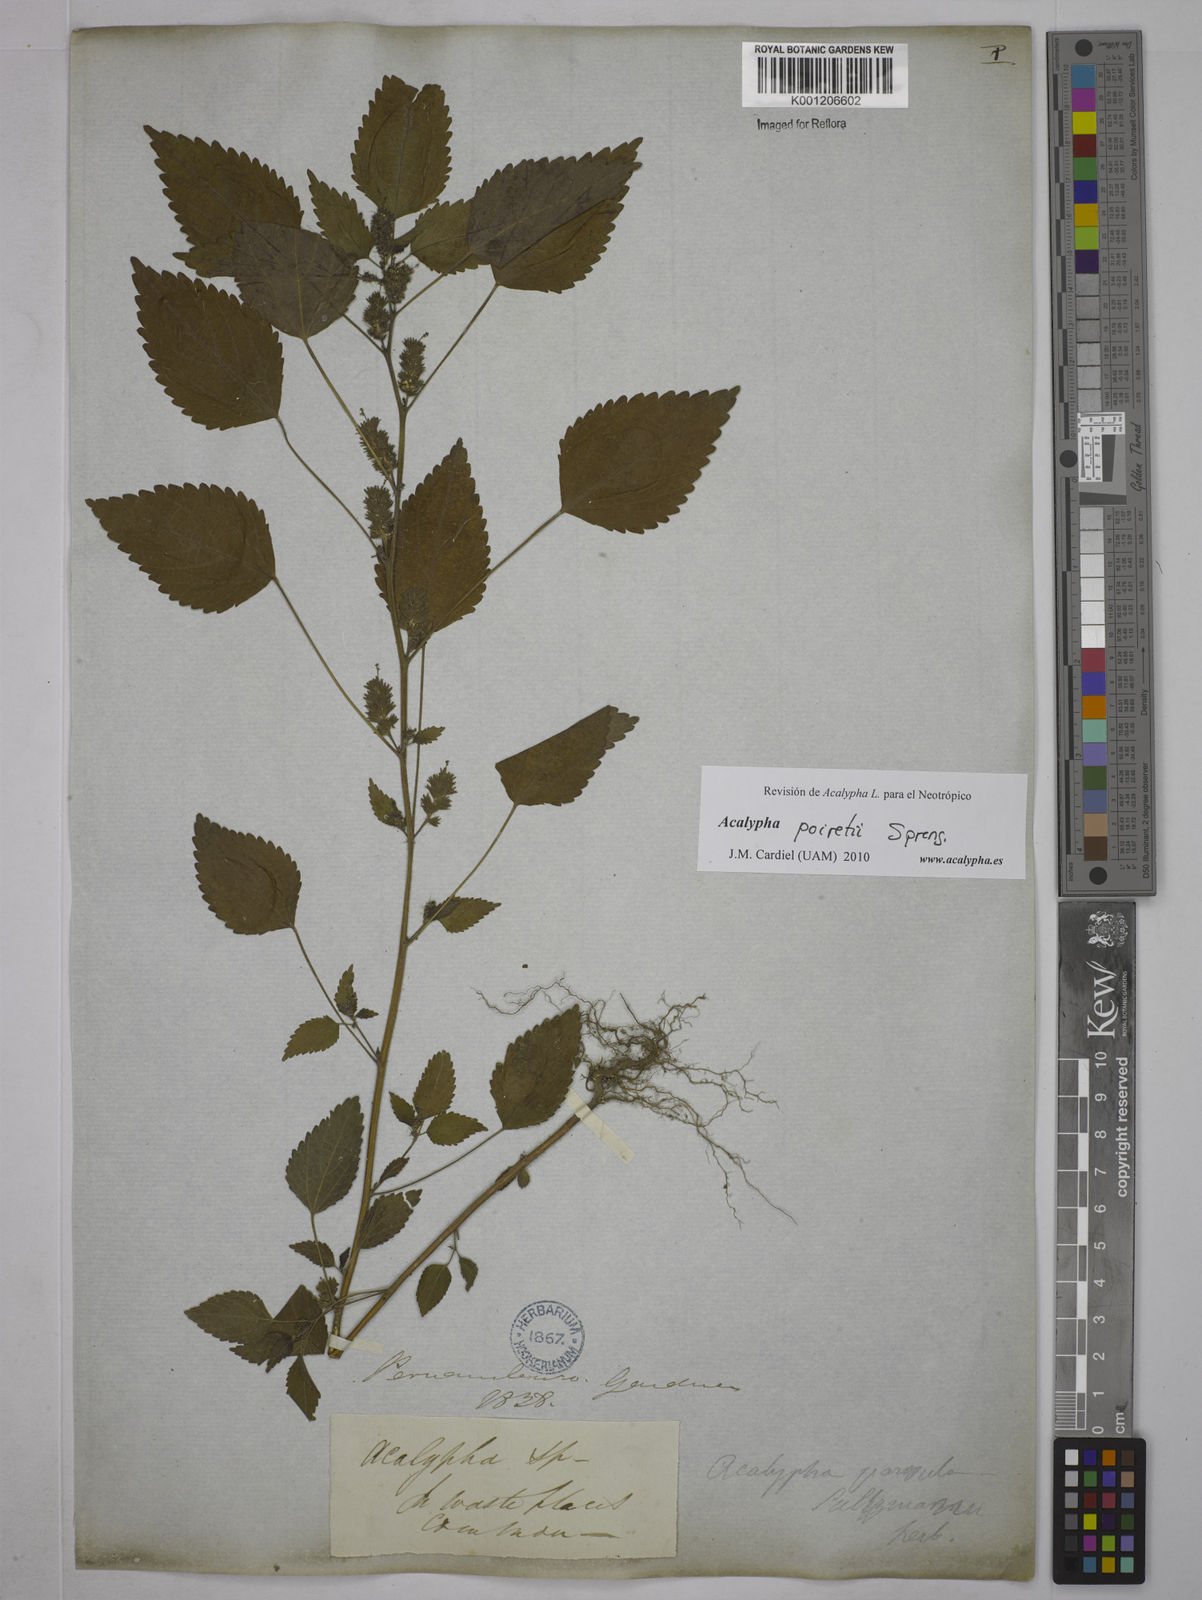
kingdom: Plantae
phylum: Tracheophyta
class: Magnoliopsida
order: Malpighiales
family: Euphorbiaceae
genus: Acalypha
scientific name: Acalypha poiretii
